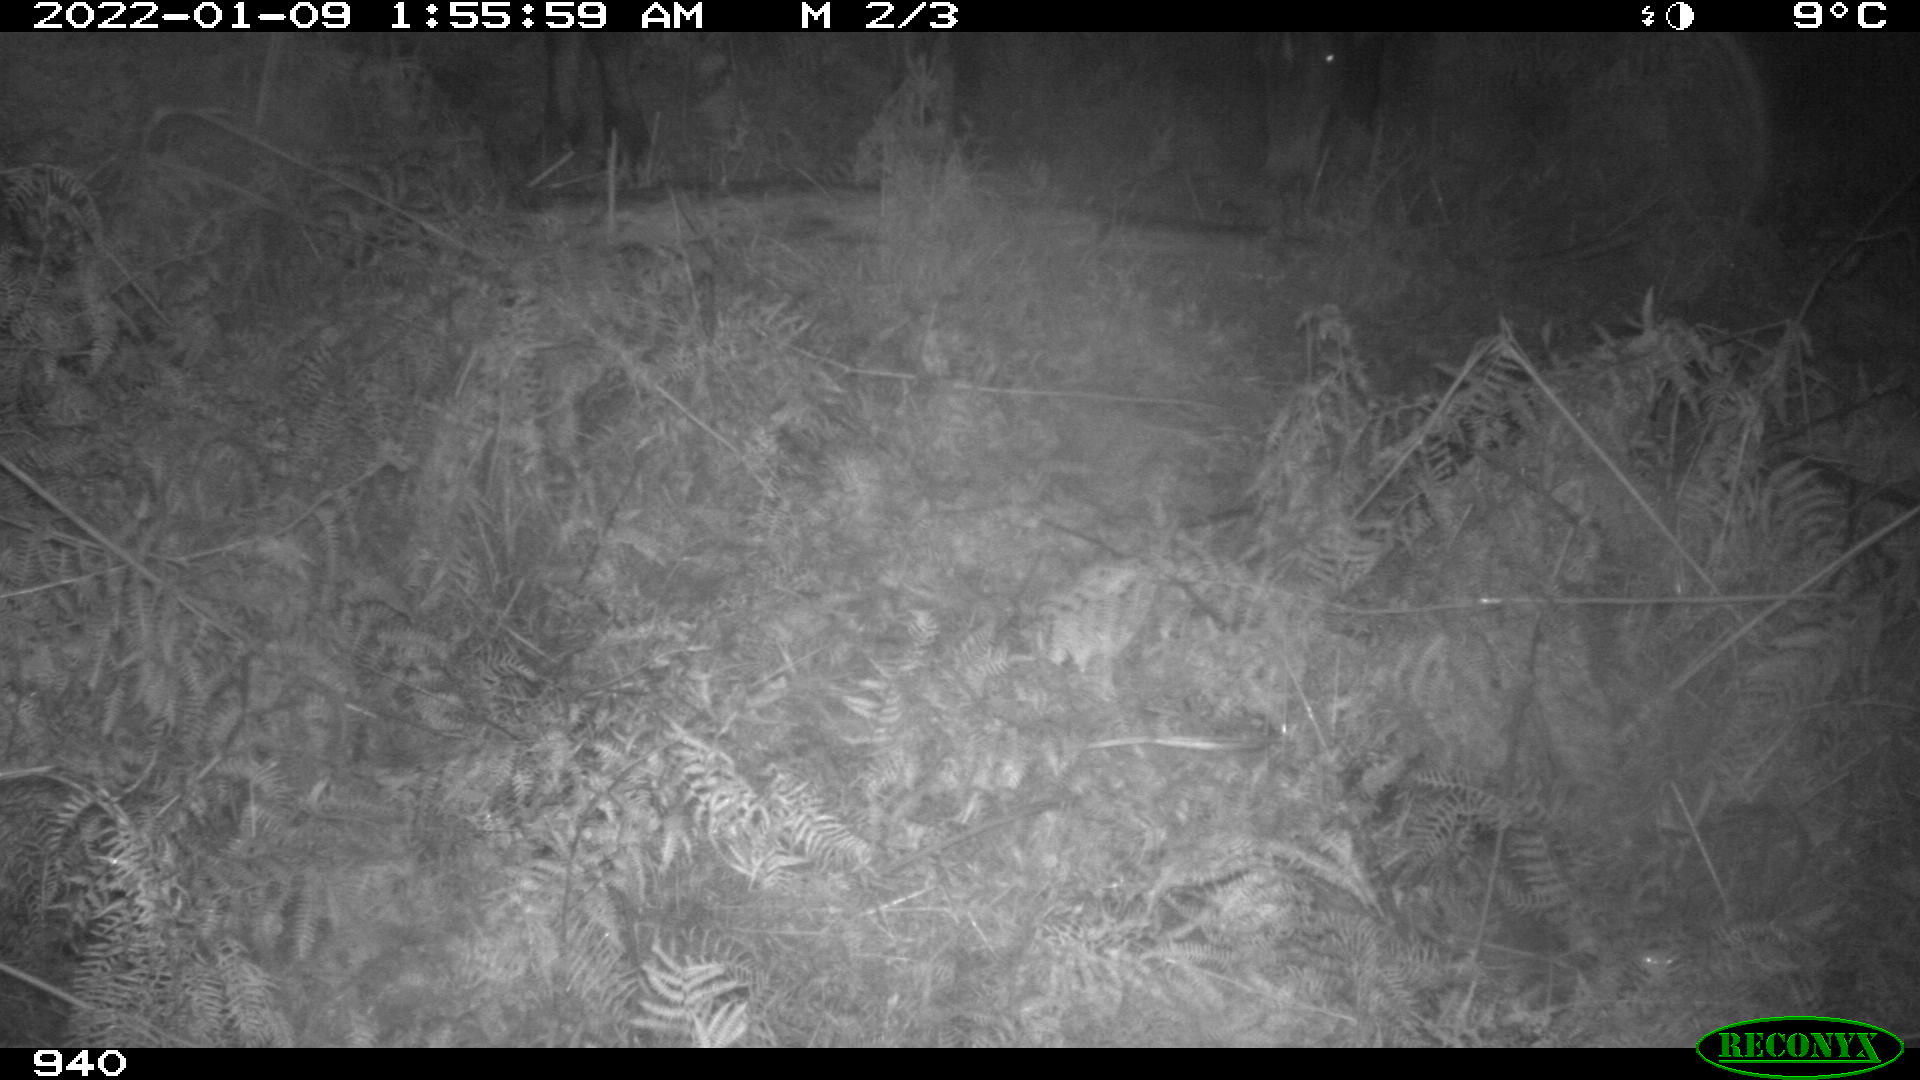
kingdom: Animalia
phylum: Chordata
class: Mammalia
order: Perissodactyla
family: Equidae
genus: Equus
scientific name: Equus caballus
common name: Horse
